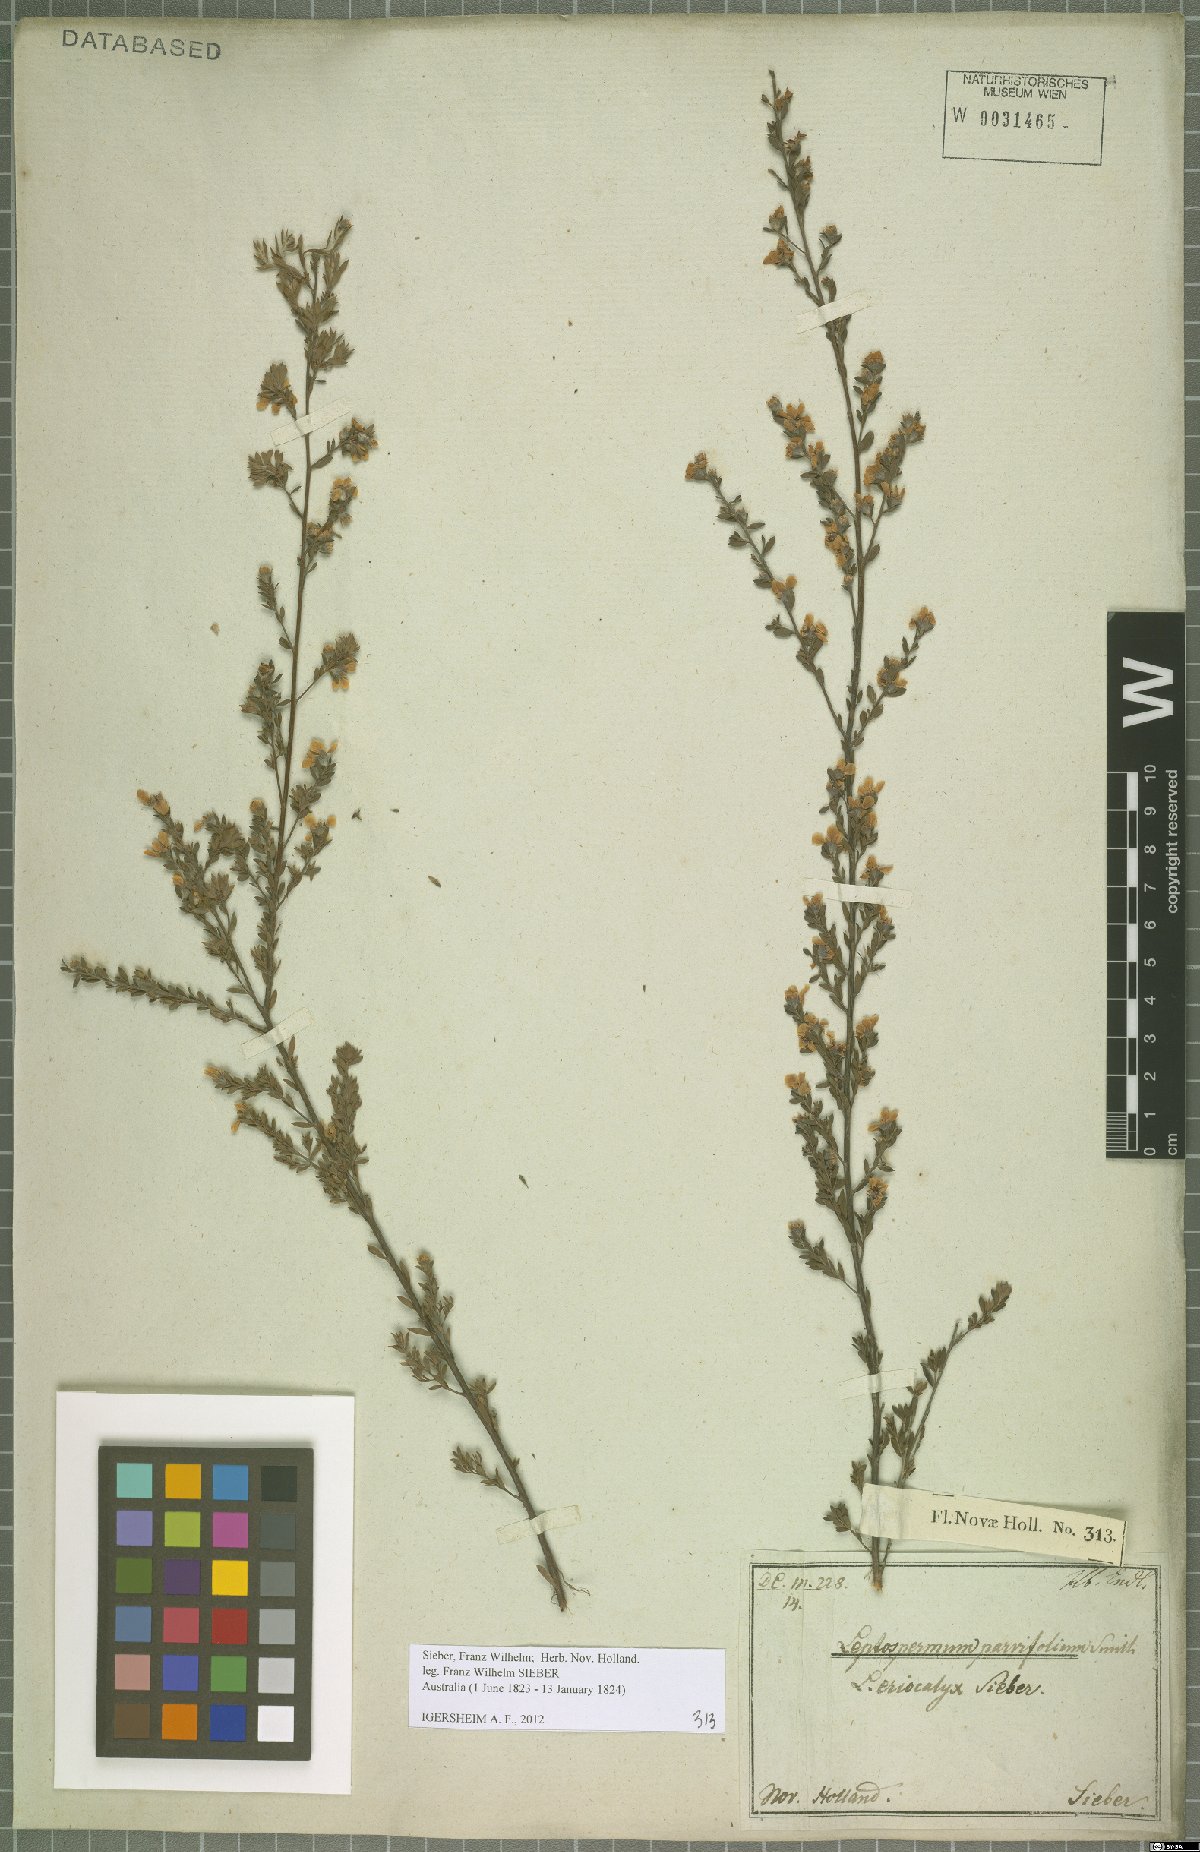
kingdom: Plantae
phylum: Tracheophyta
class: Magnoliopsida
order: Myrtales
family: Myrtaceae
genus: Leptospermum
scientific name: Leptospermum parvifolium
